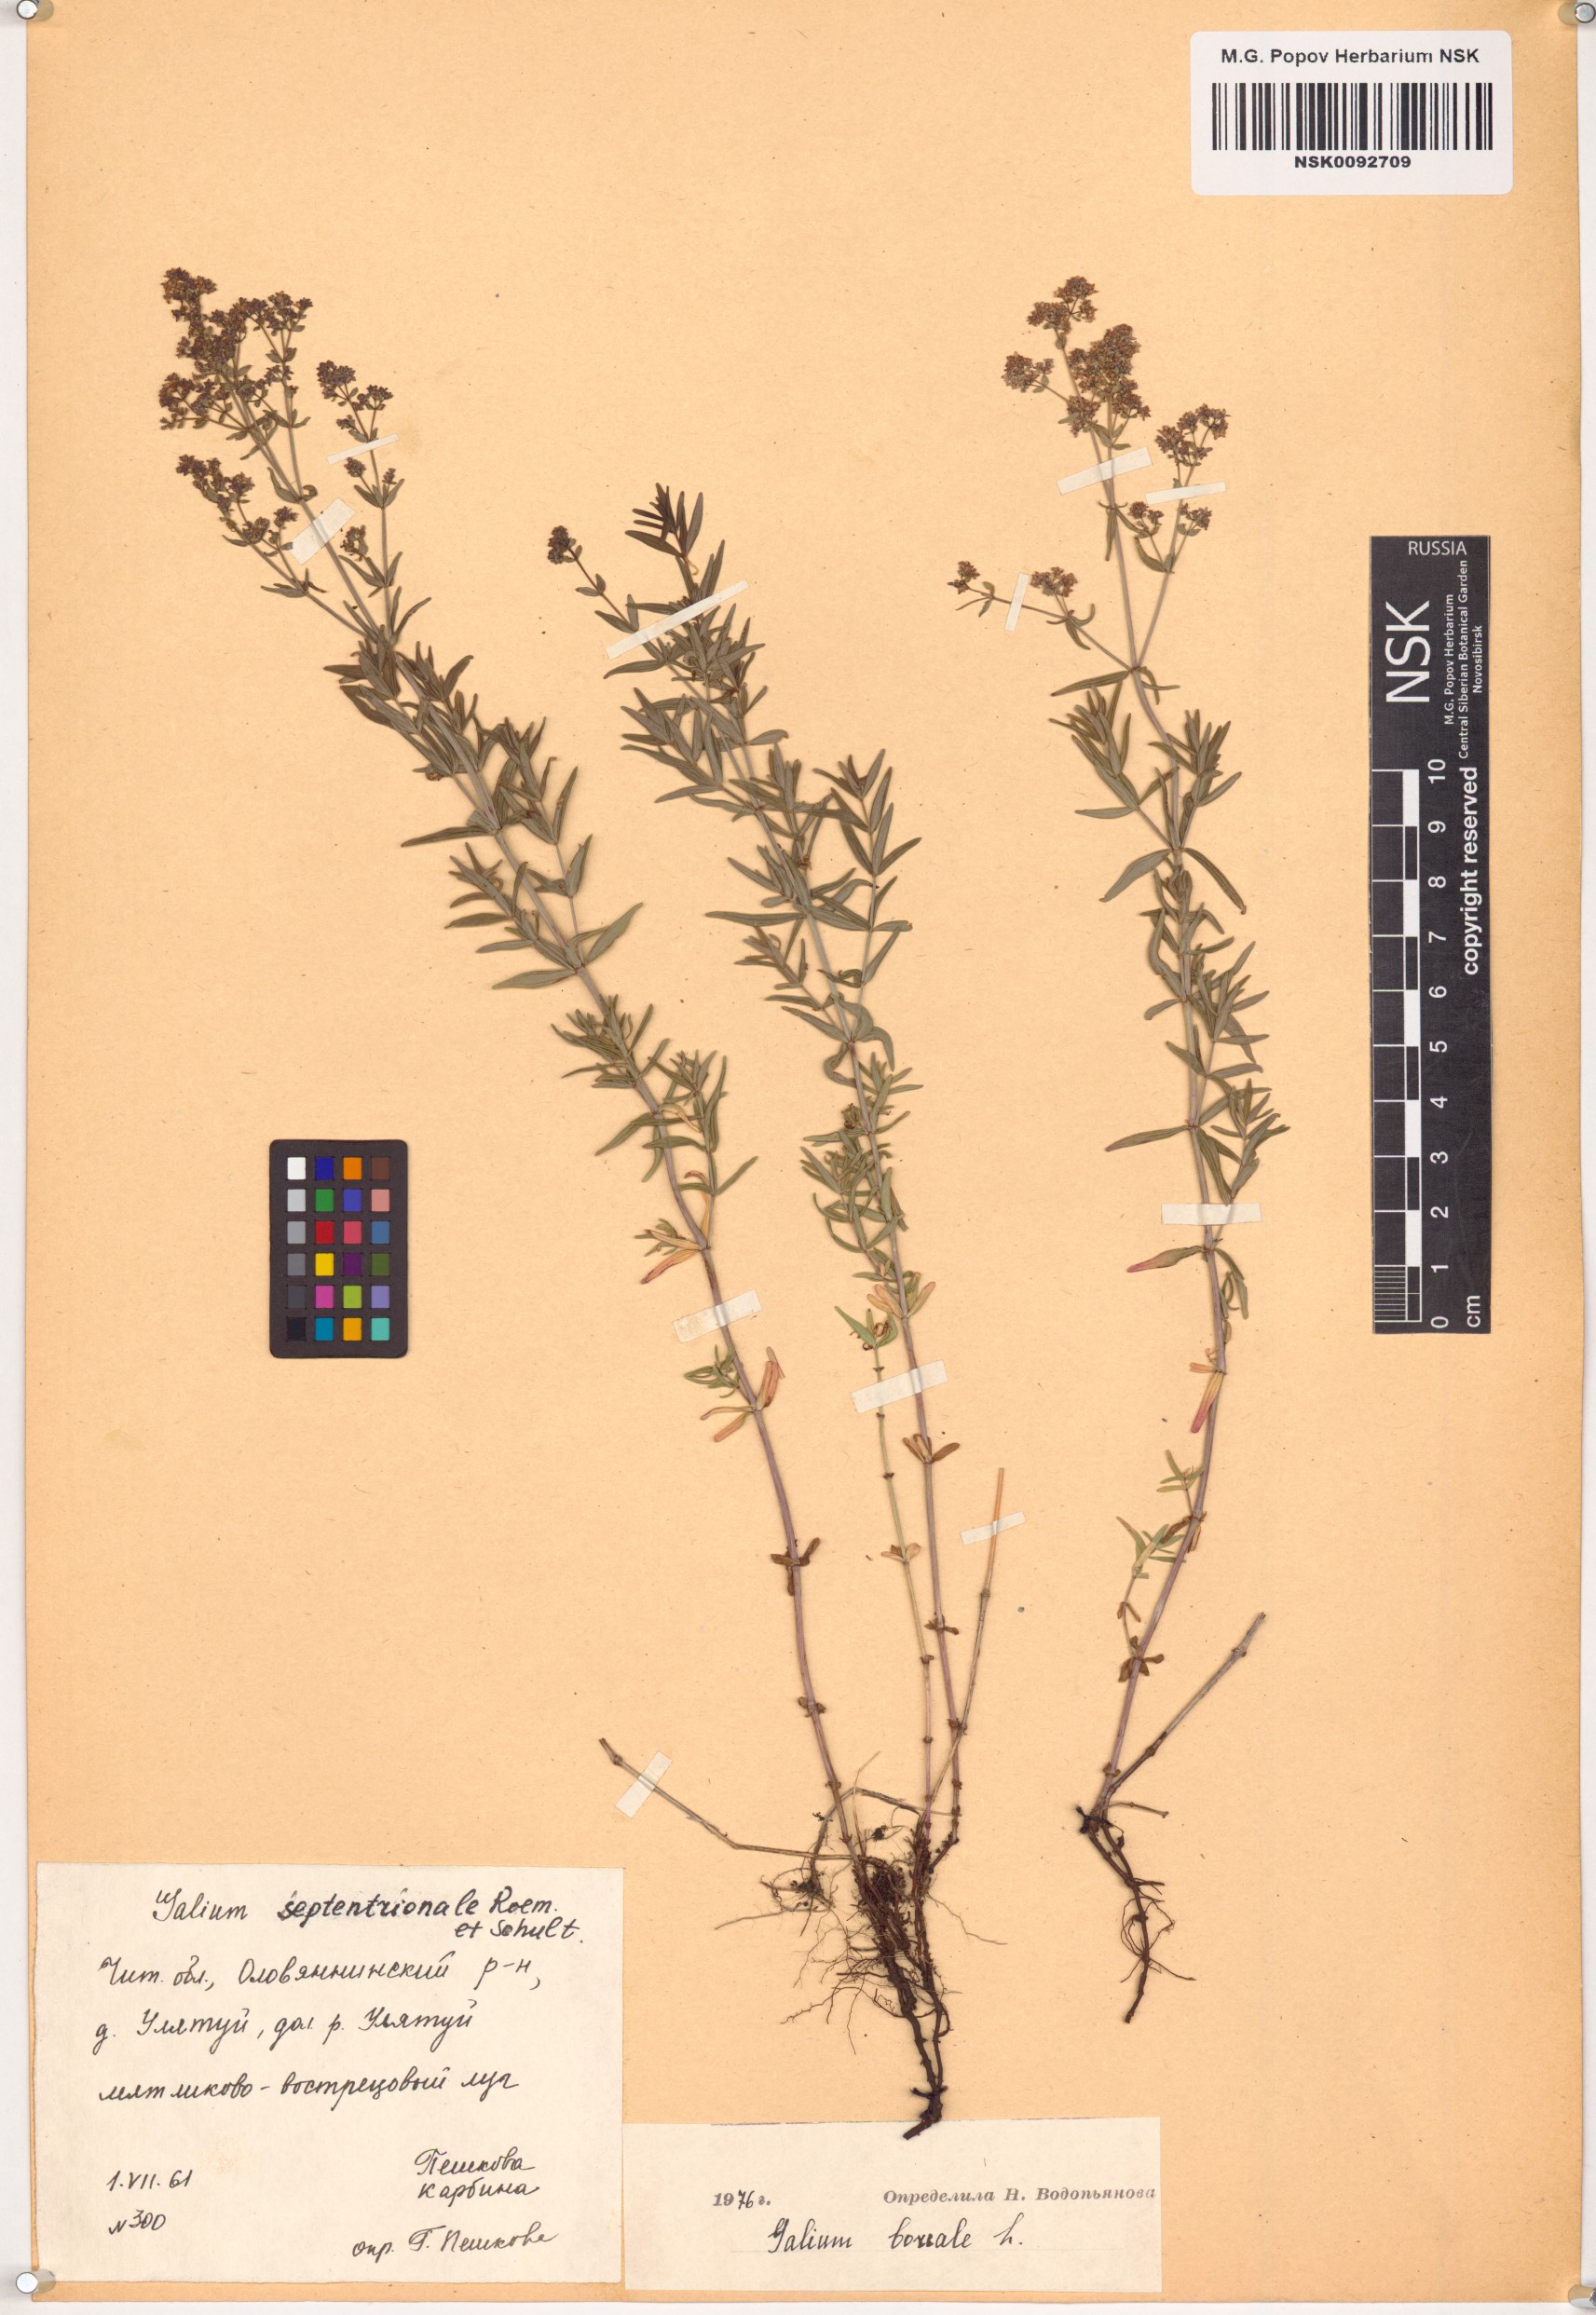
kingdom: Plantae
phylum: Tracheophyta
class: Magnoliopsida
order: Gentianales
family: Rubiaceae
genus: Galium
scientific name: Galium boreale
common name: Northern bedstraw
